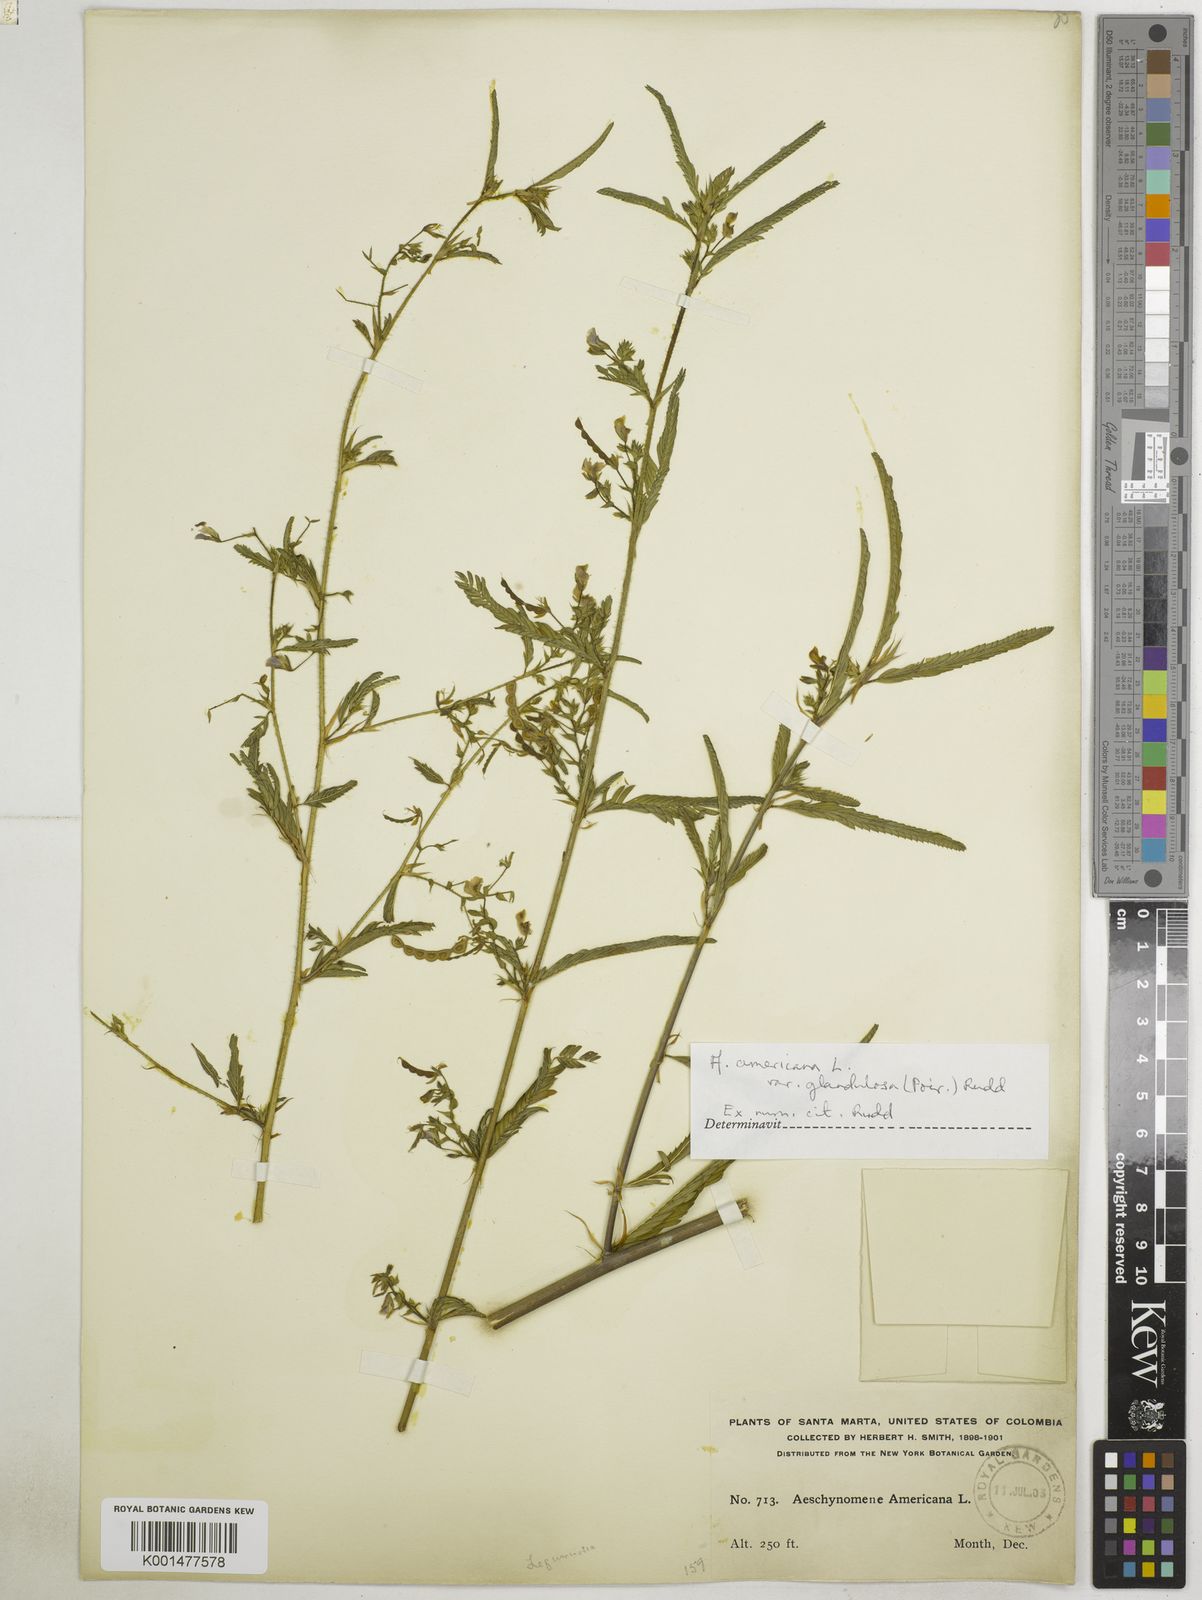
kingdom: Plantae
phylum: Tracheophyta
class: Magnoliopsida
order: Fabales
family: Fabaceae
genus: Aeschynomene
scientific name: Aeschynomene americana
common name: Joint-vetch
